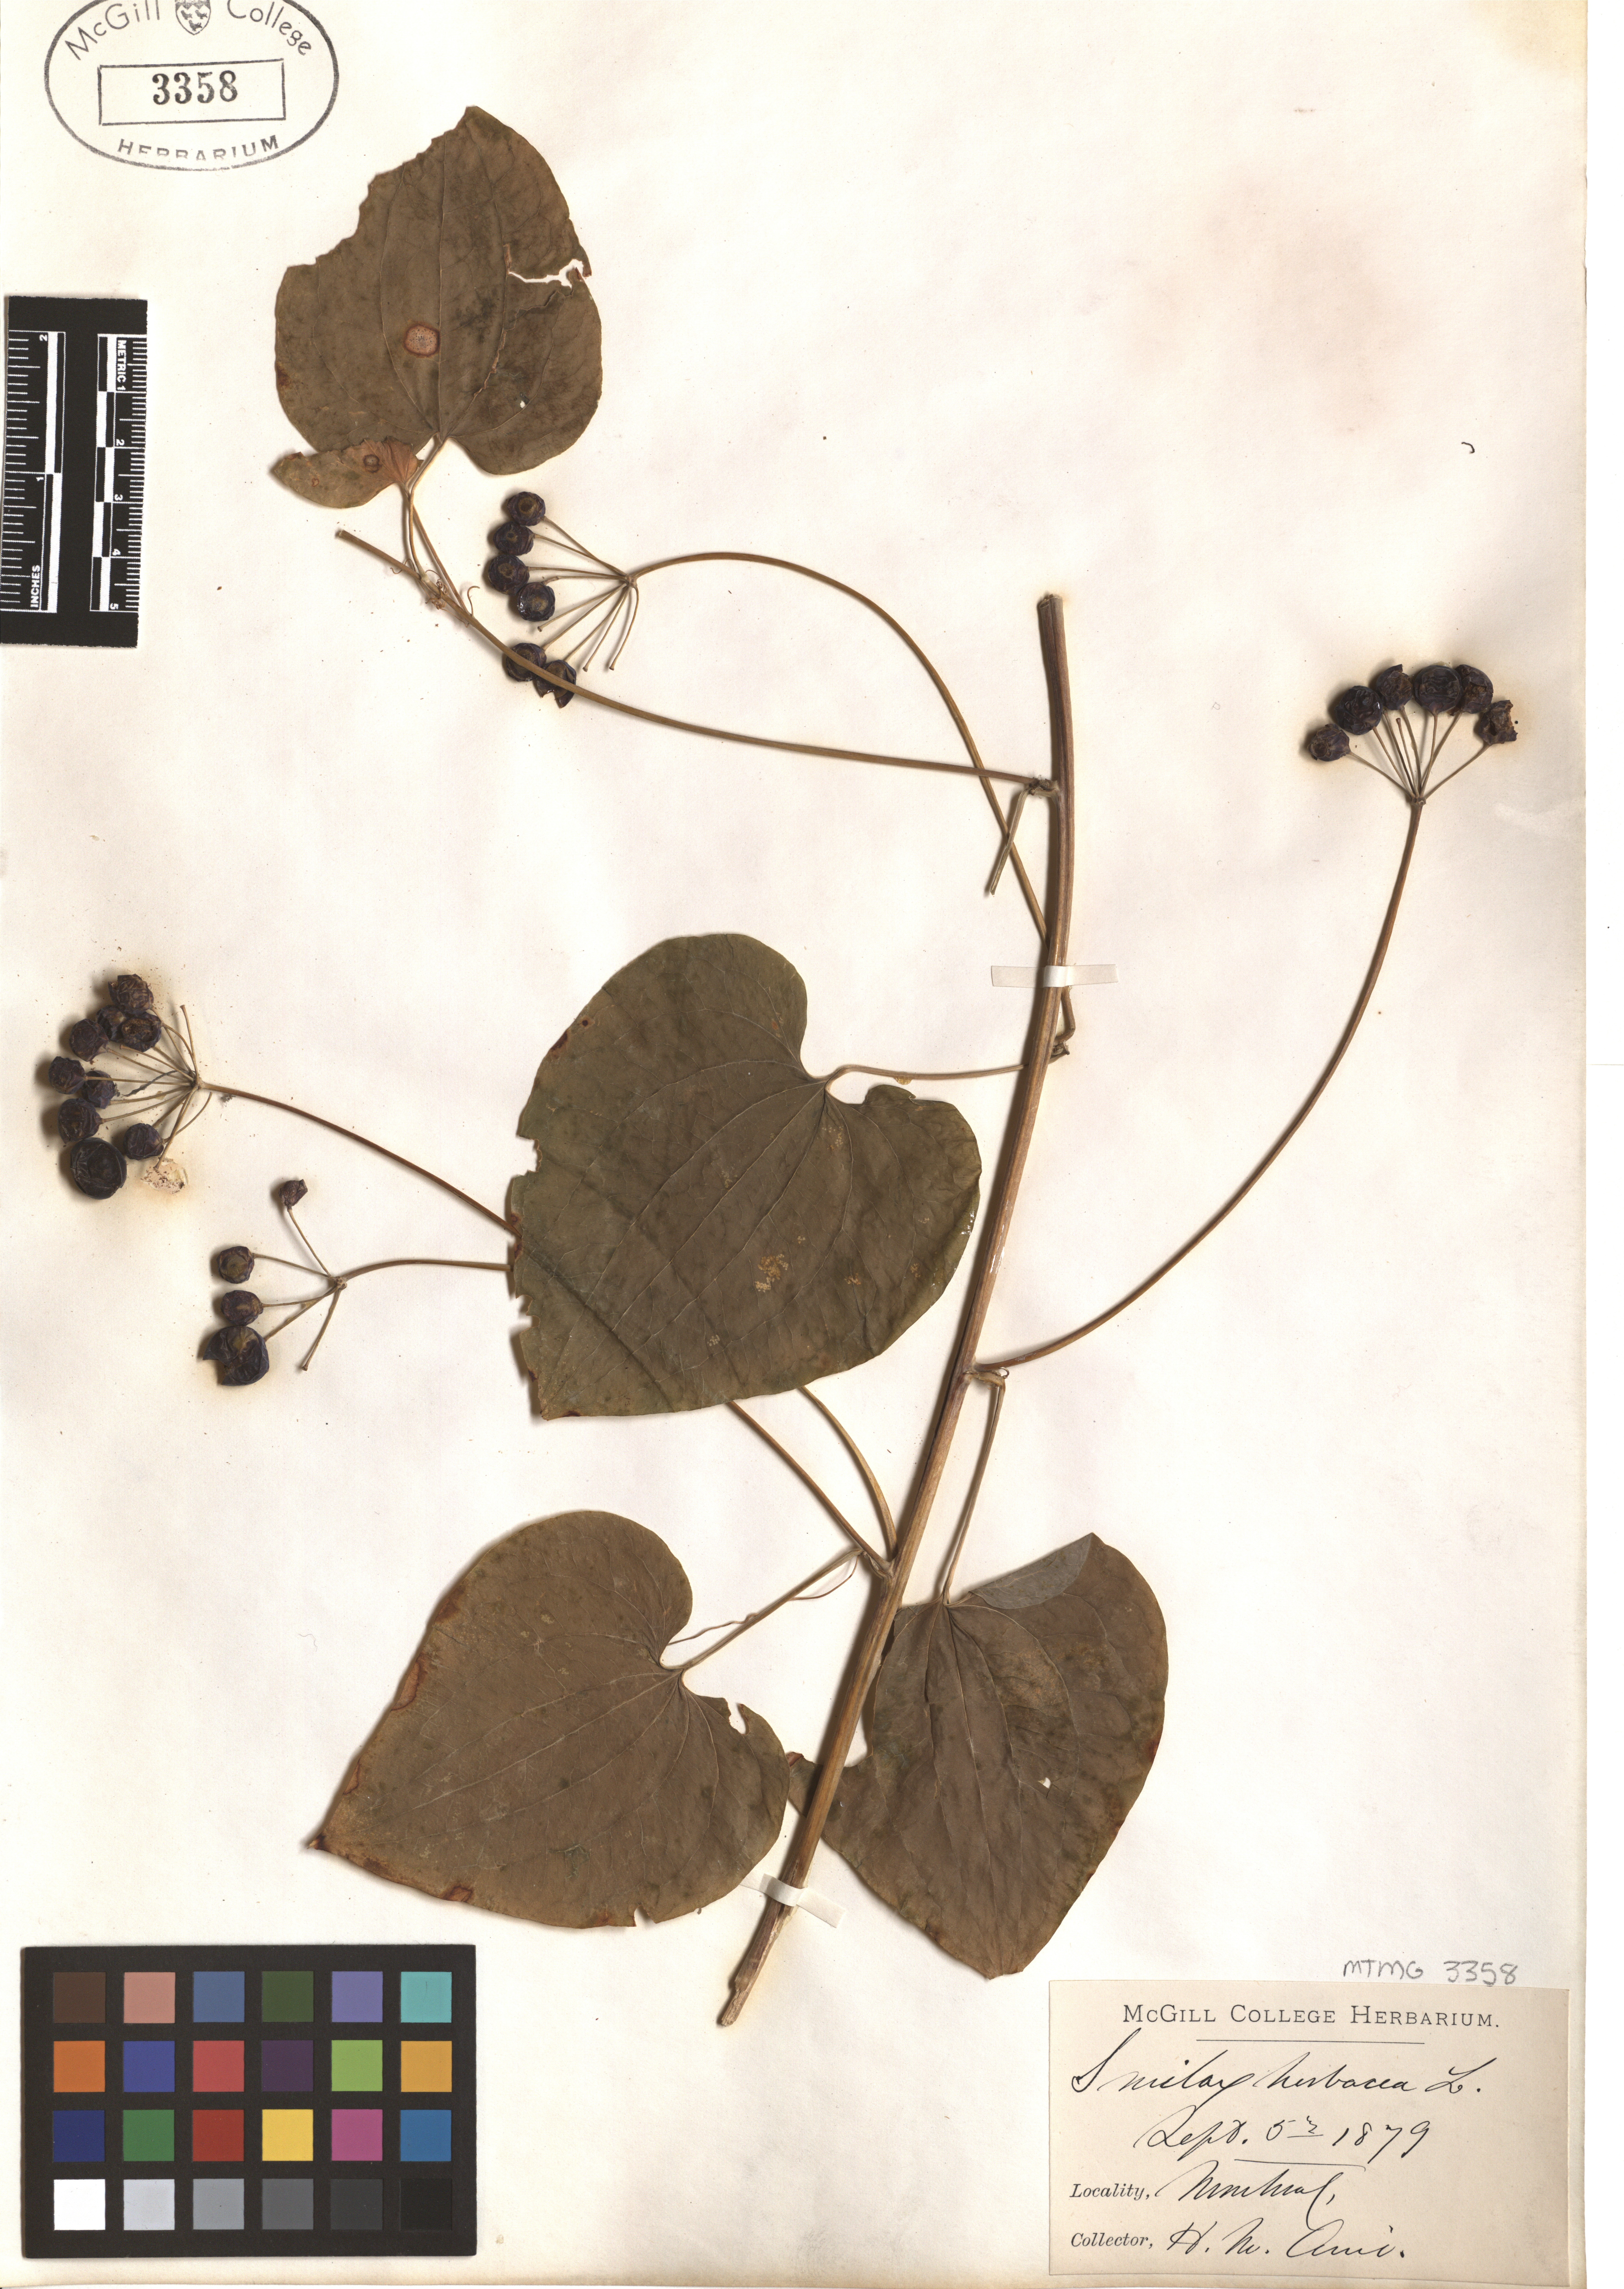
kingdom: Plantae
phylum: Tracheophyta
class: Liliopsida
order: Liliales
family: Smilacaceae
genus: Smilax
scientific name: Smilax herbacea
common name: Jacob's-ladder
